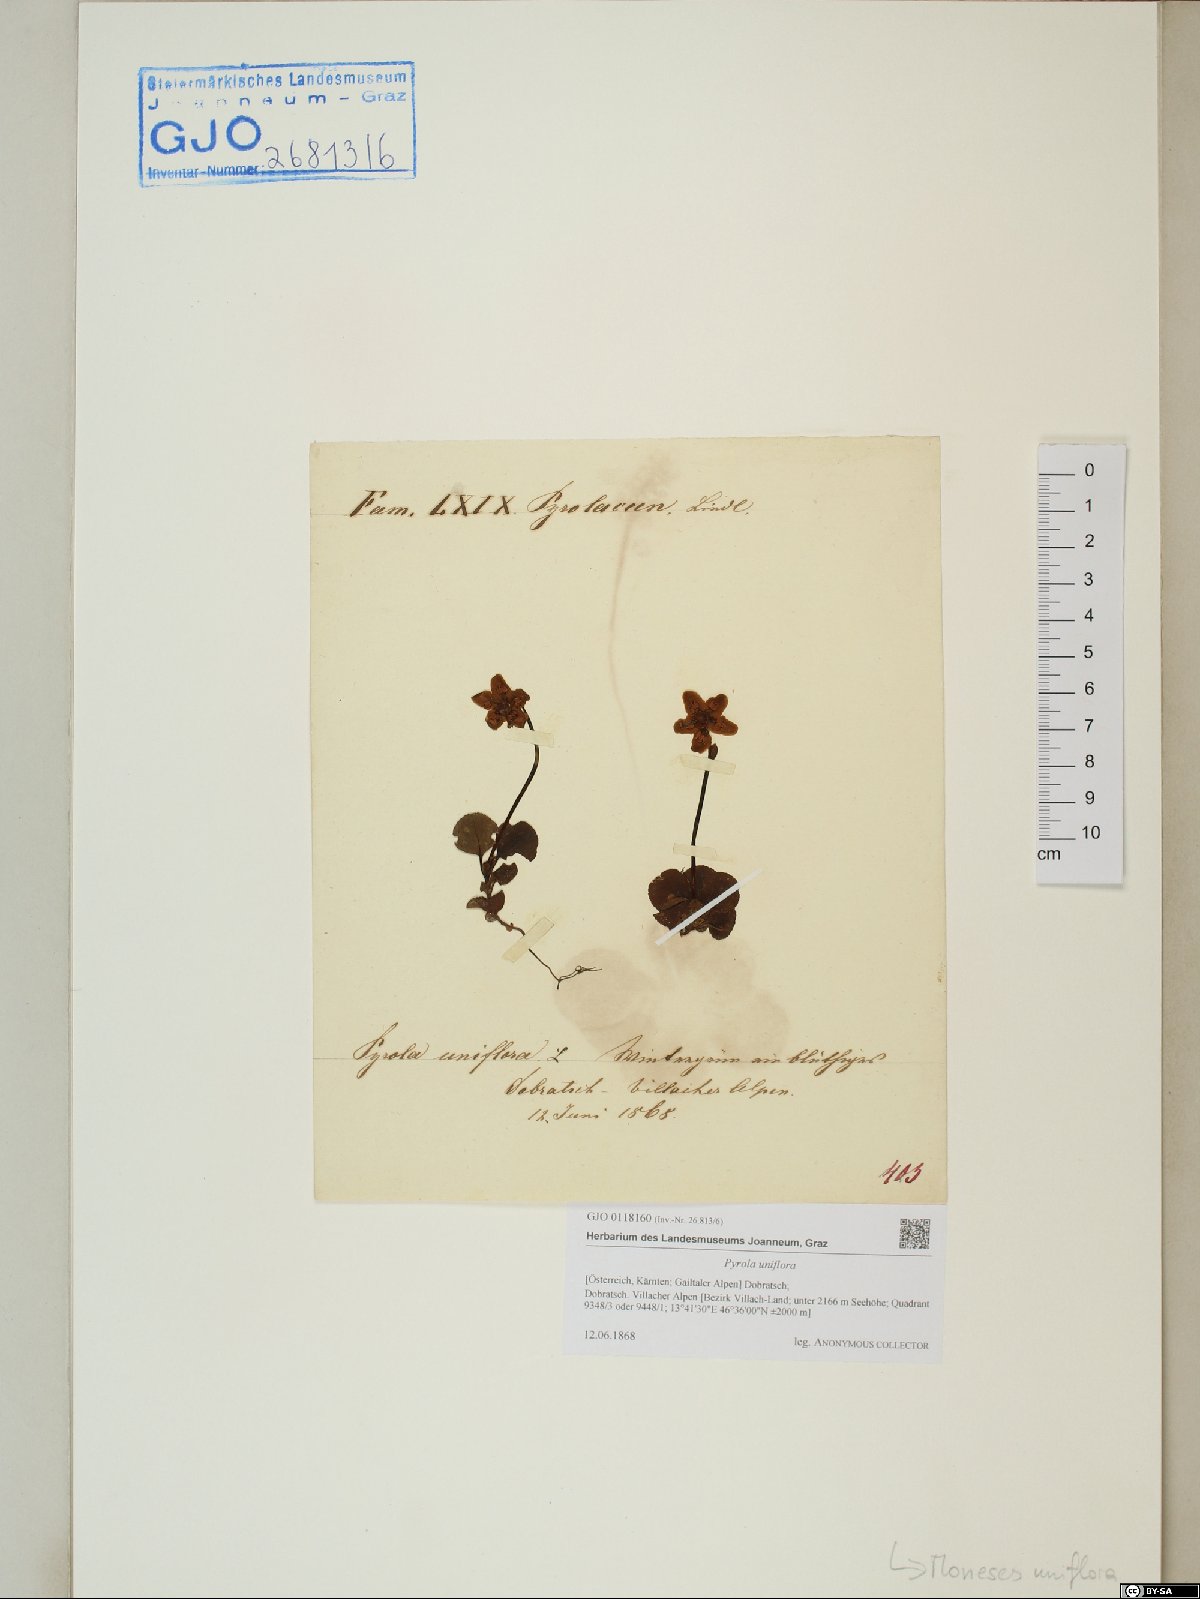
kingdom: Plantae
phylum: Tracheophyta
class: Magnoliopsida
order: Ericales
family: Ericaceae
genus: Moneses
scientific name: Moneses uniflora
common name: One-flowered wintergreen
